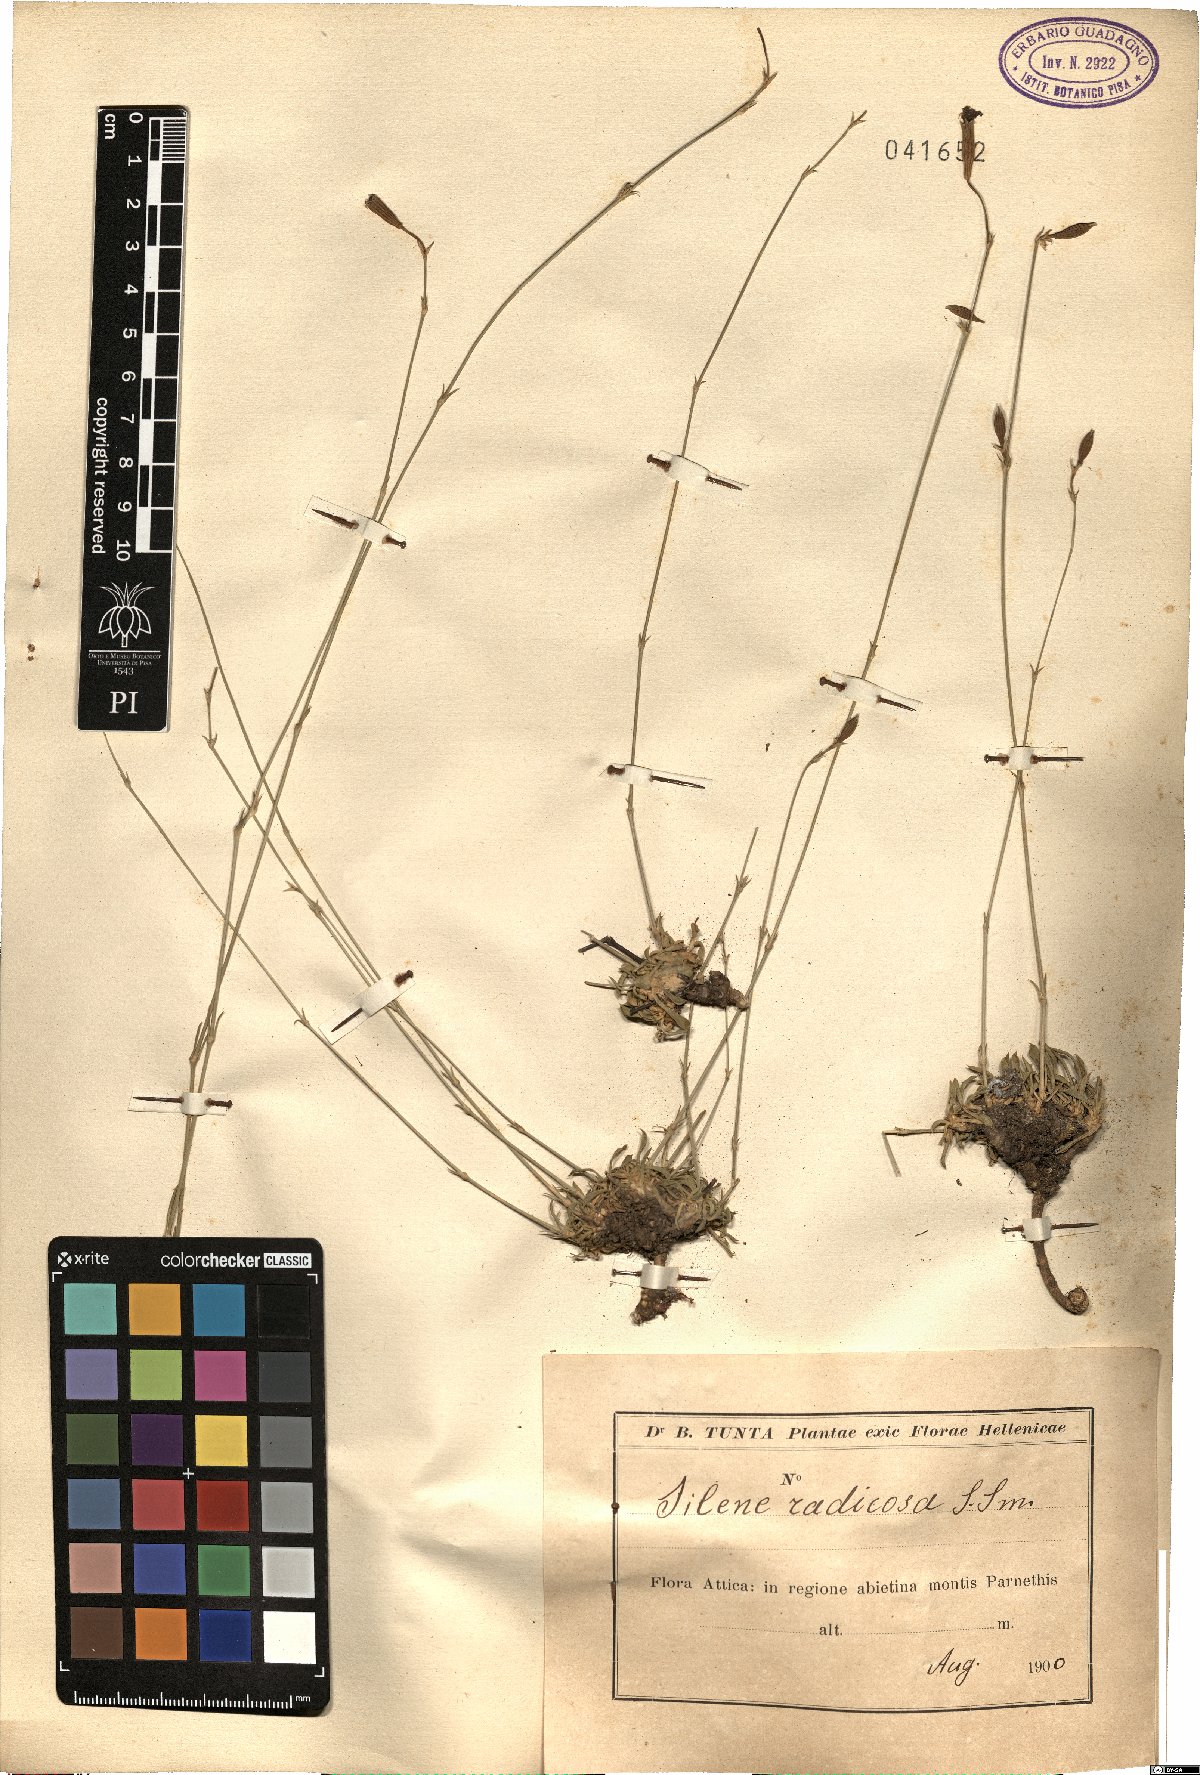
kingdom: Plantae
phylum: Tracheophyta
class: Magnoliopsida
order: Caryophyllales
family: Caryophyllaceae
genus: Silene
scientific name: Silene radicosa
